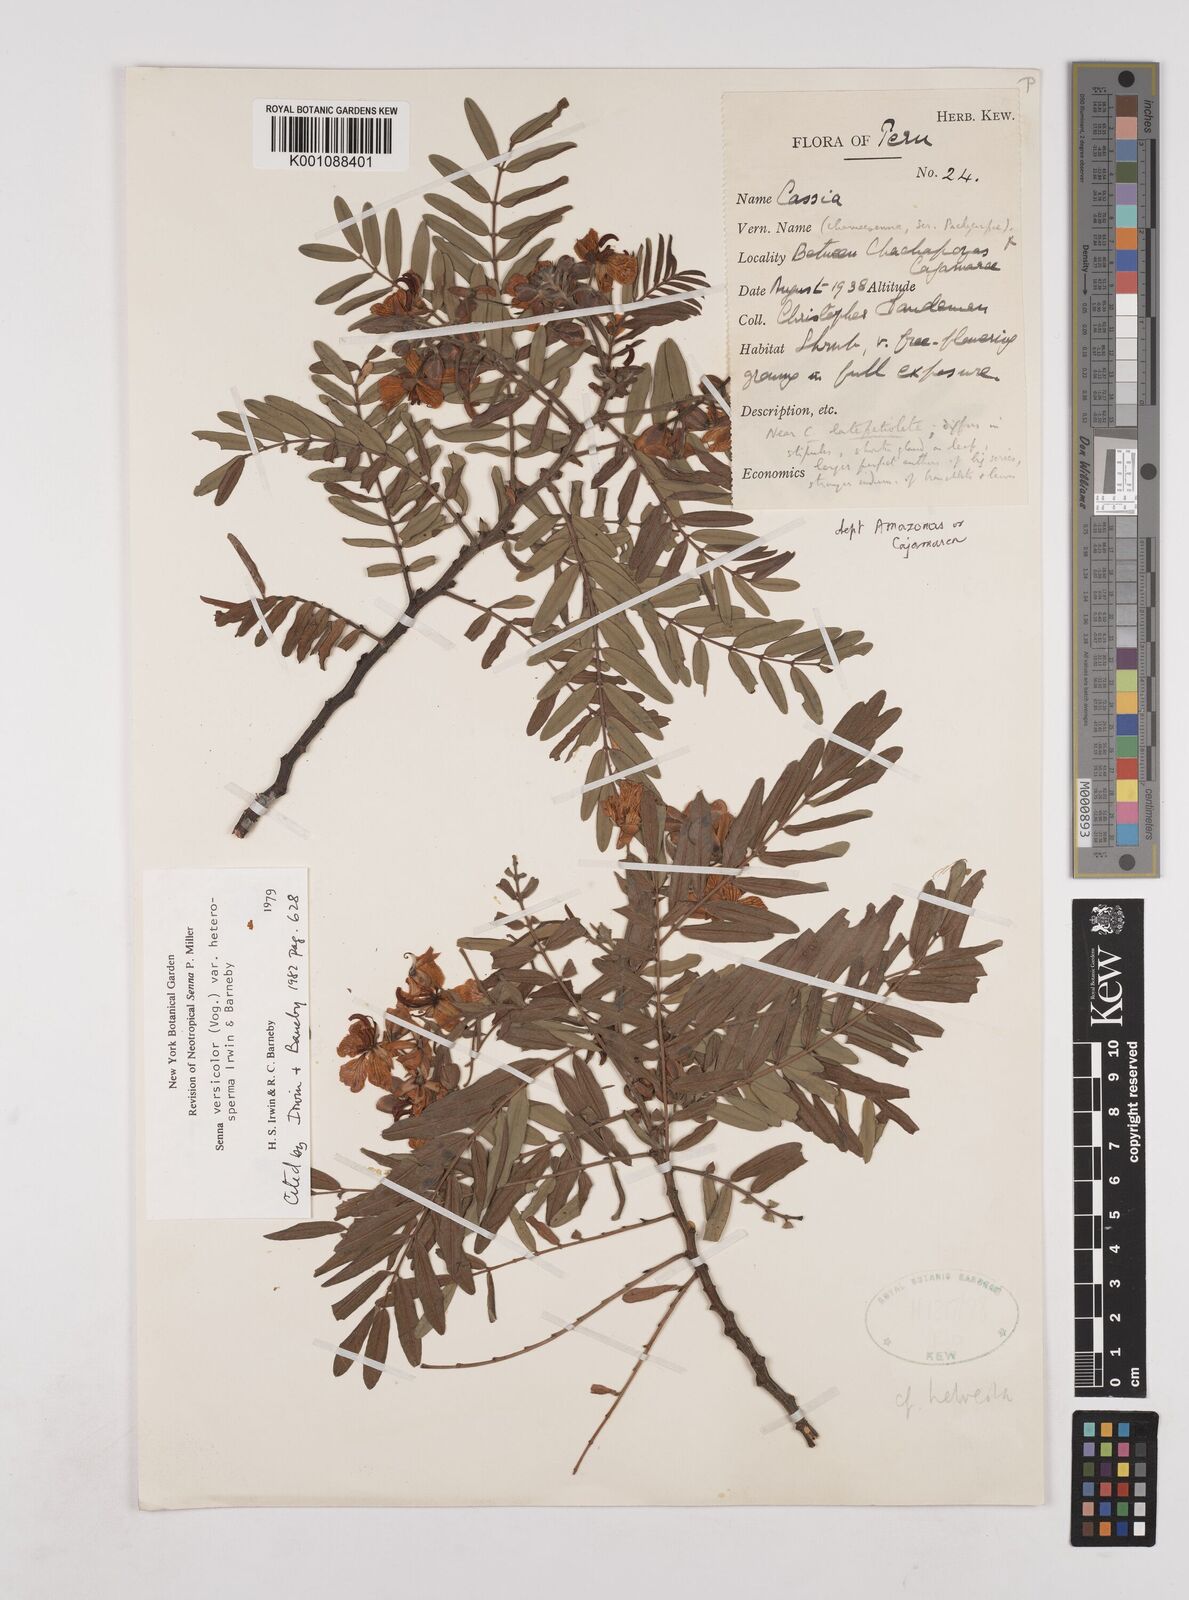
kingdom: Plantae
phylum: Tracheophyta
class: Magnoliopsida
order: Fabales
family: Fabaceae
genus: Senna
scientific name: Senna versicolor
